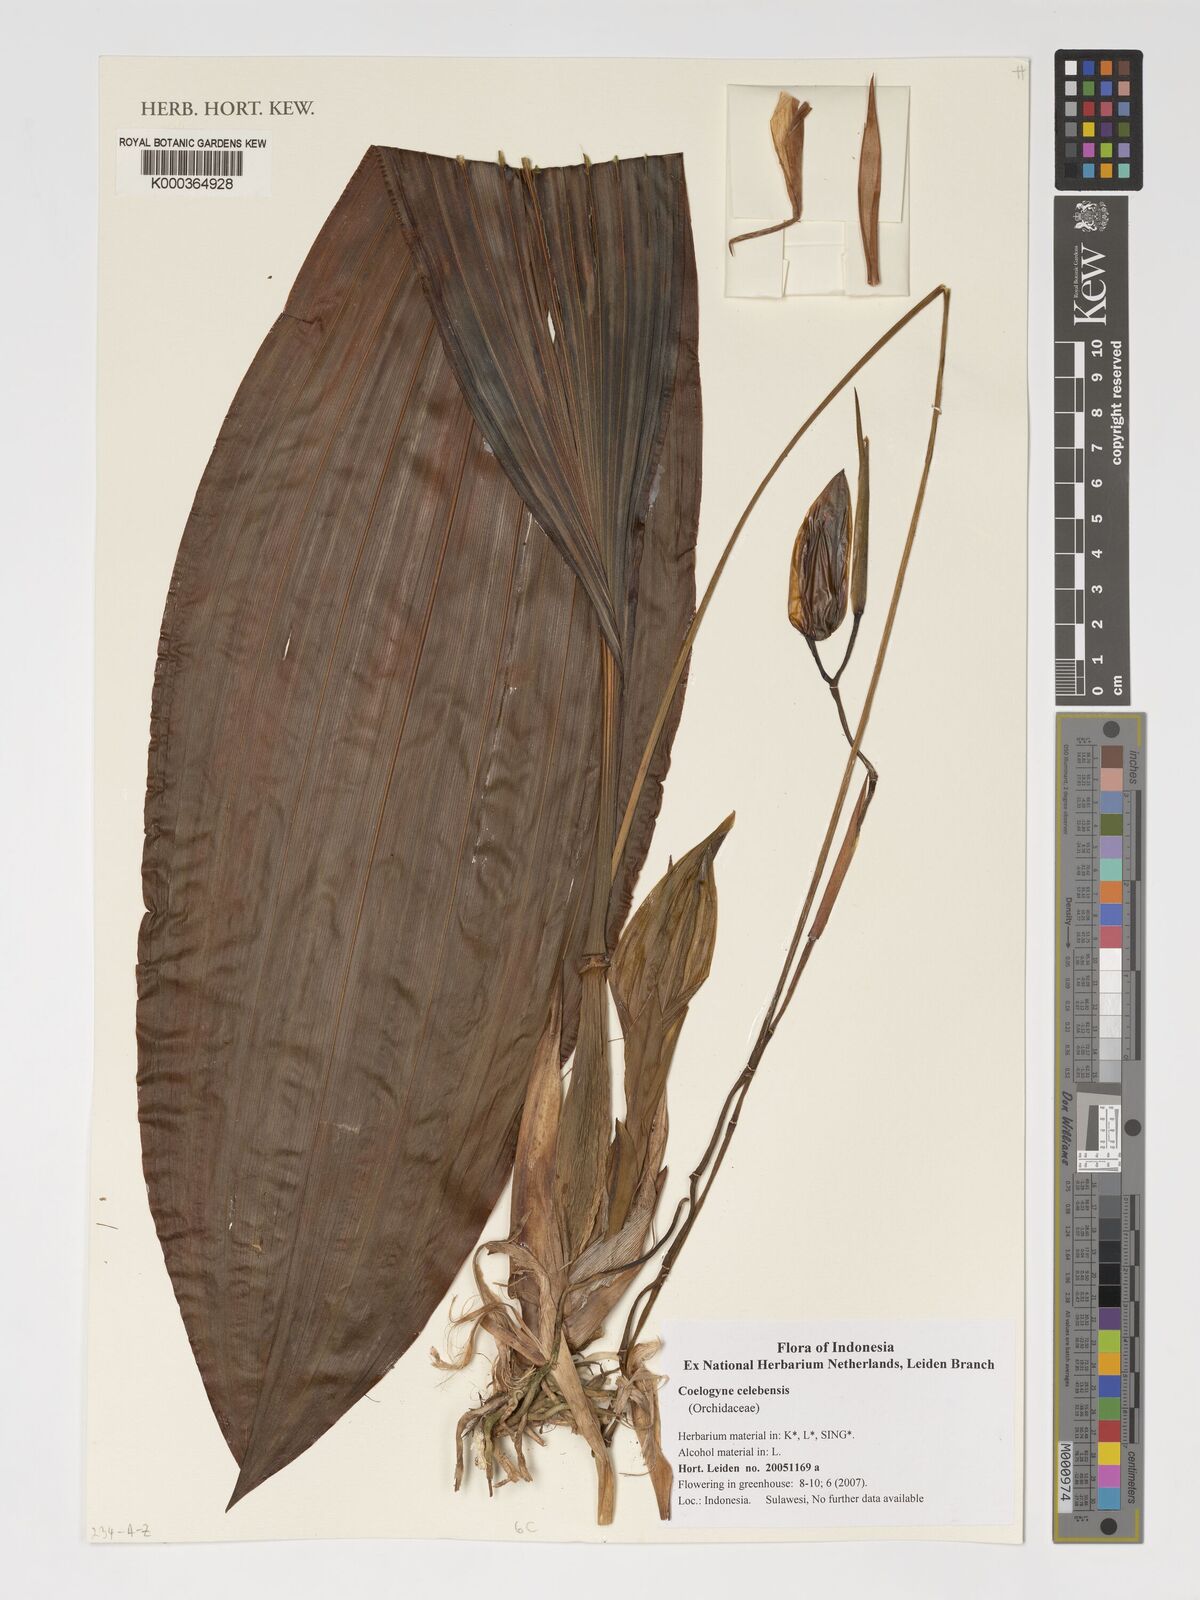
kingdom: Plantae
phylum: Tracheophyta
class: Liliopsida
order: Asparagales
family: Orchidaceae
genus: Coelogyne
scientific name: Coelogyne celebensis
